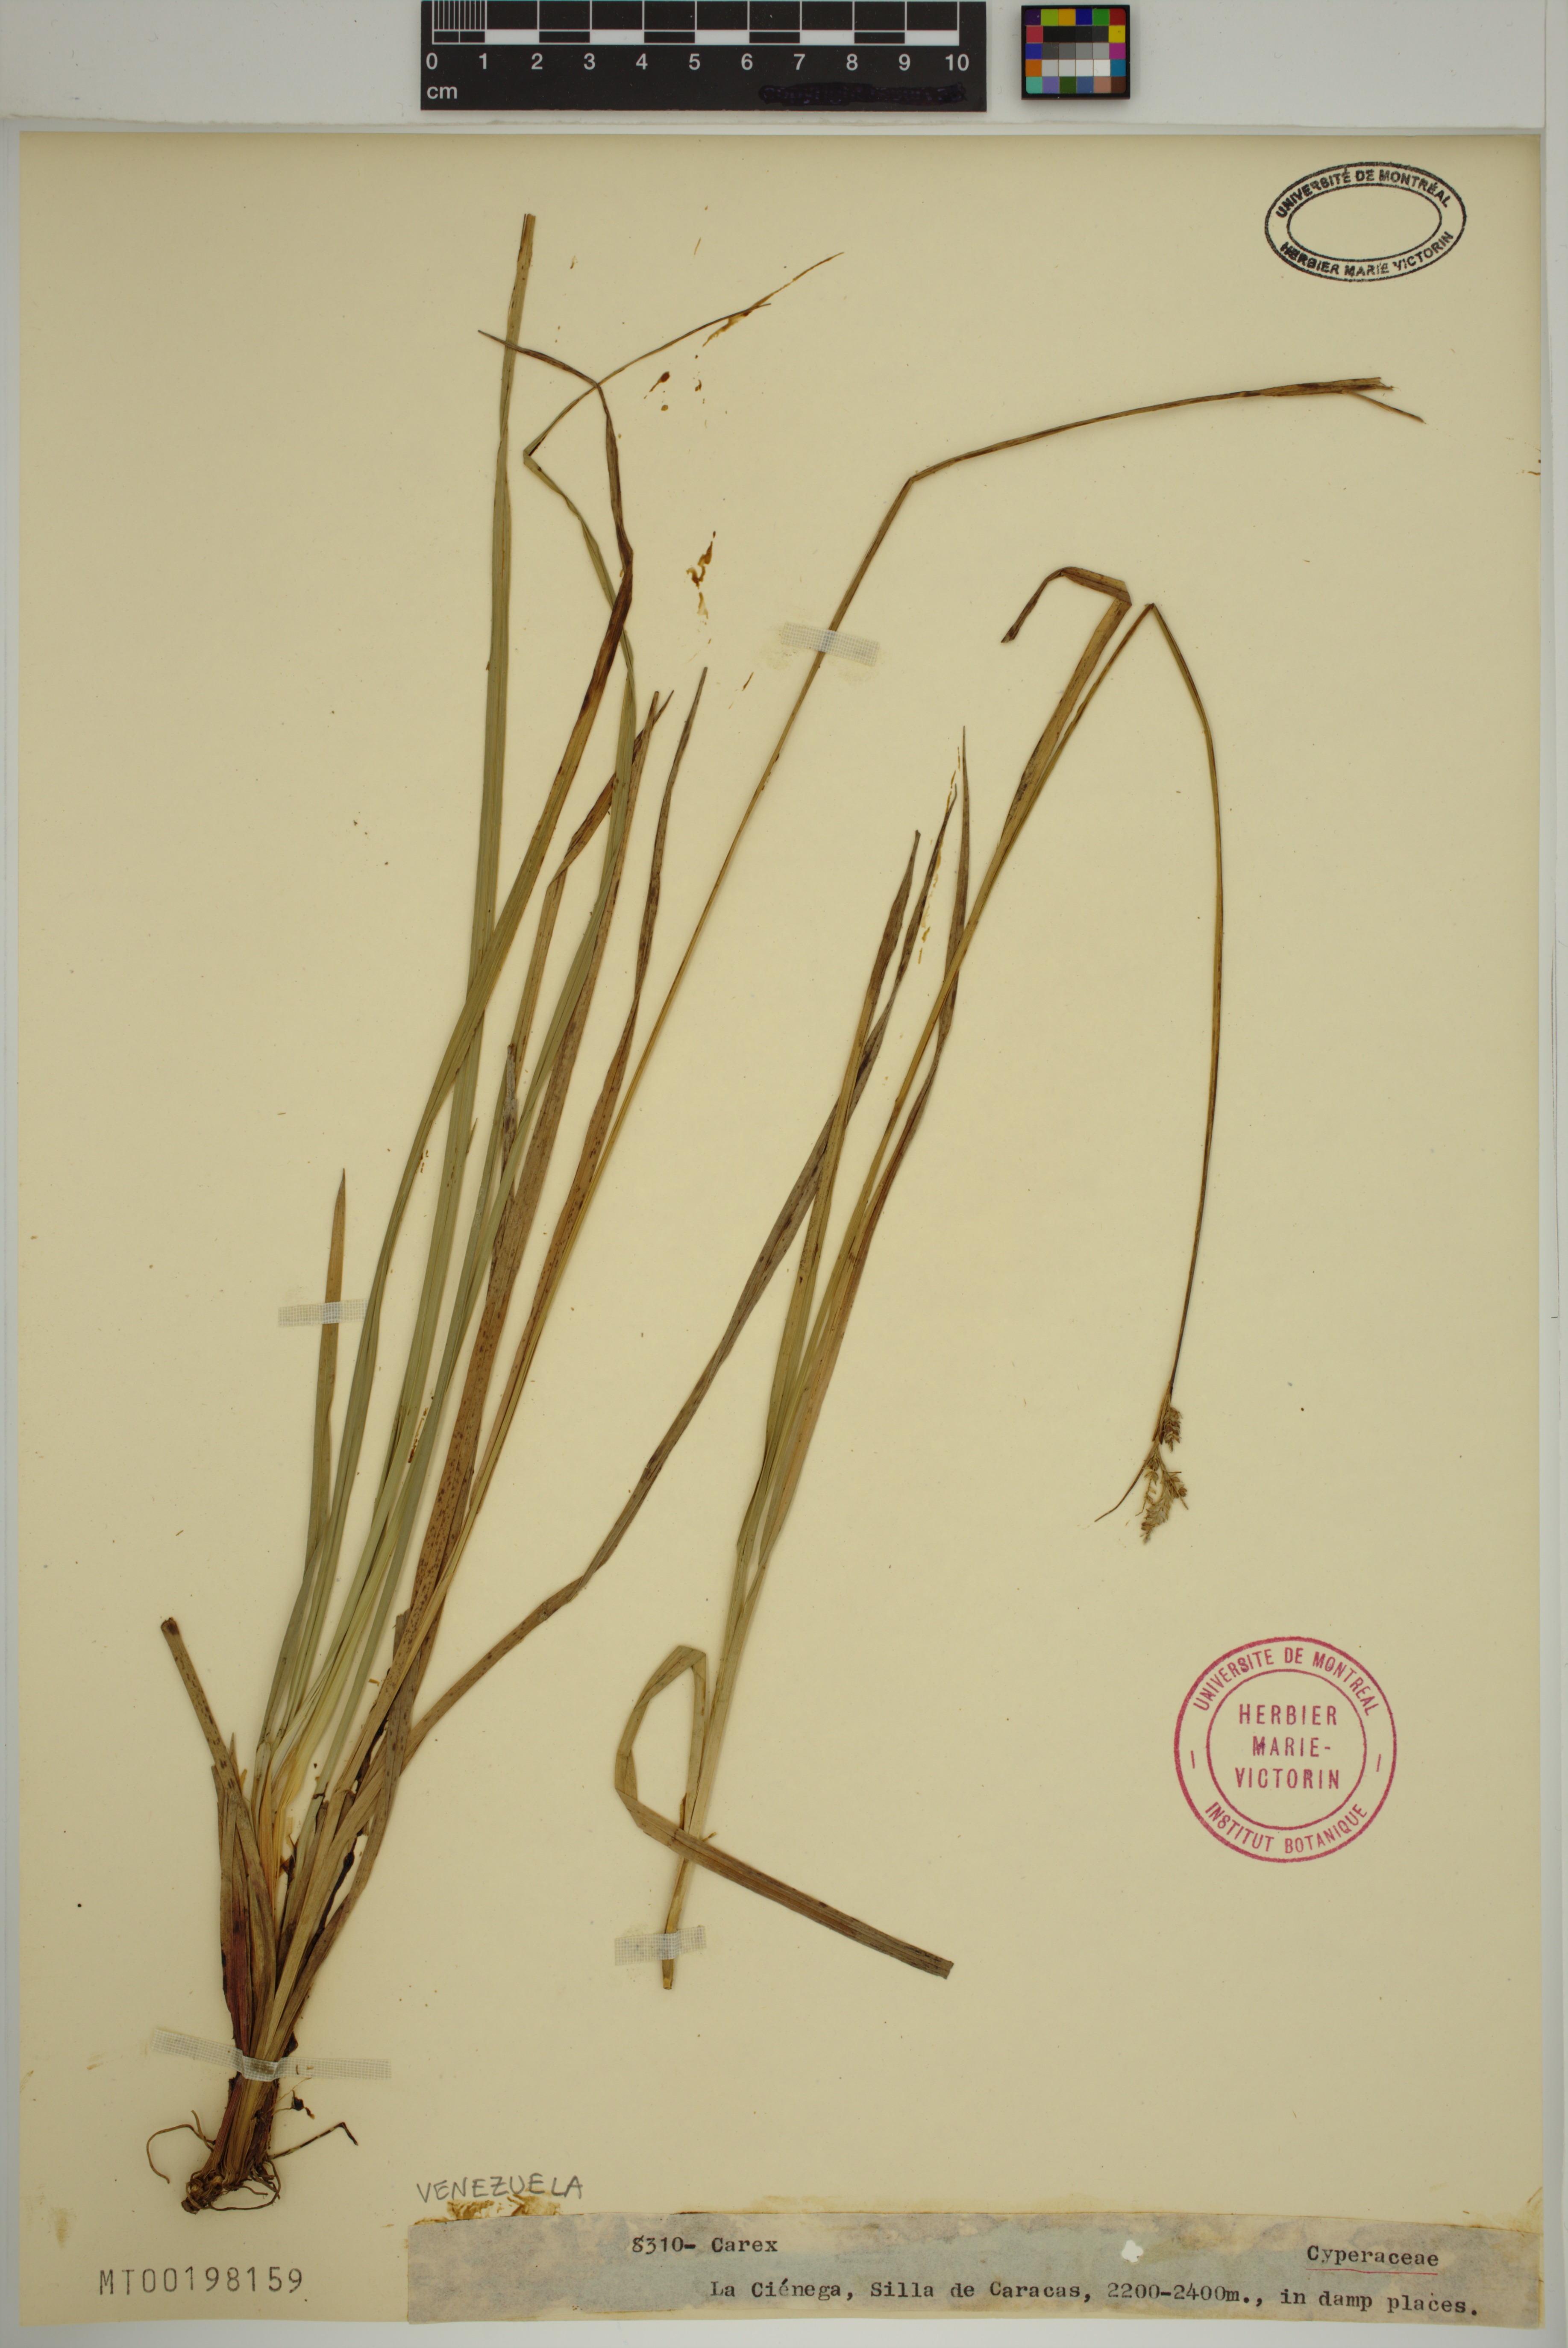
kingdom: Plantae
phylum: Tracheophyta
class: Liliopsida
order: Poales
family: Cyperaceae
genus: Carex
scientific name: Carex
